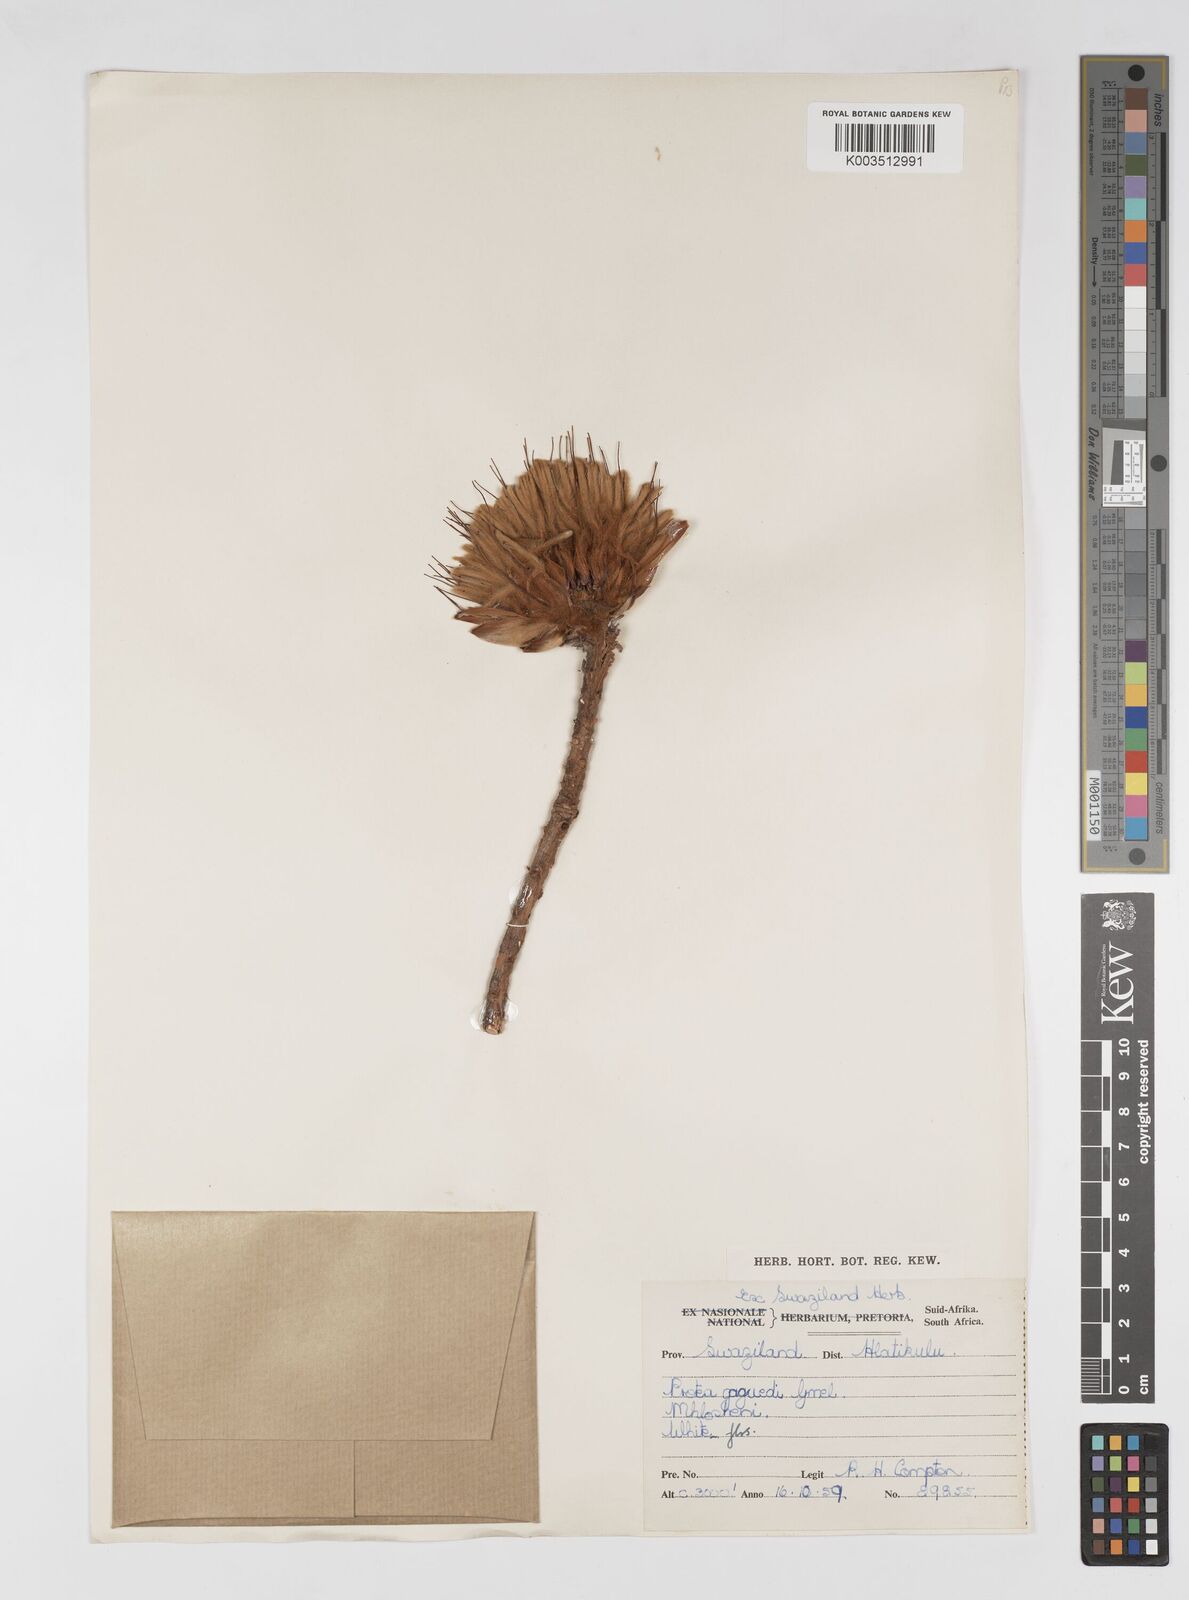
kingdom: Plantae
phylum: Tracheophyta
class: Magnoliopsida
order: Proteales
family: Proteaceae
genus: Protea
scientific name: Protea gaguedi
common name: African protea
